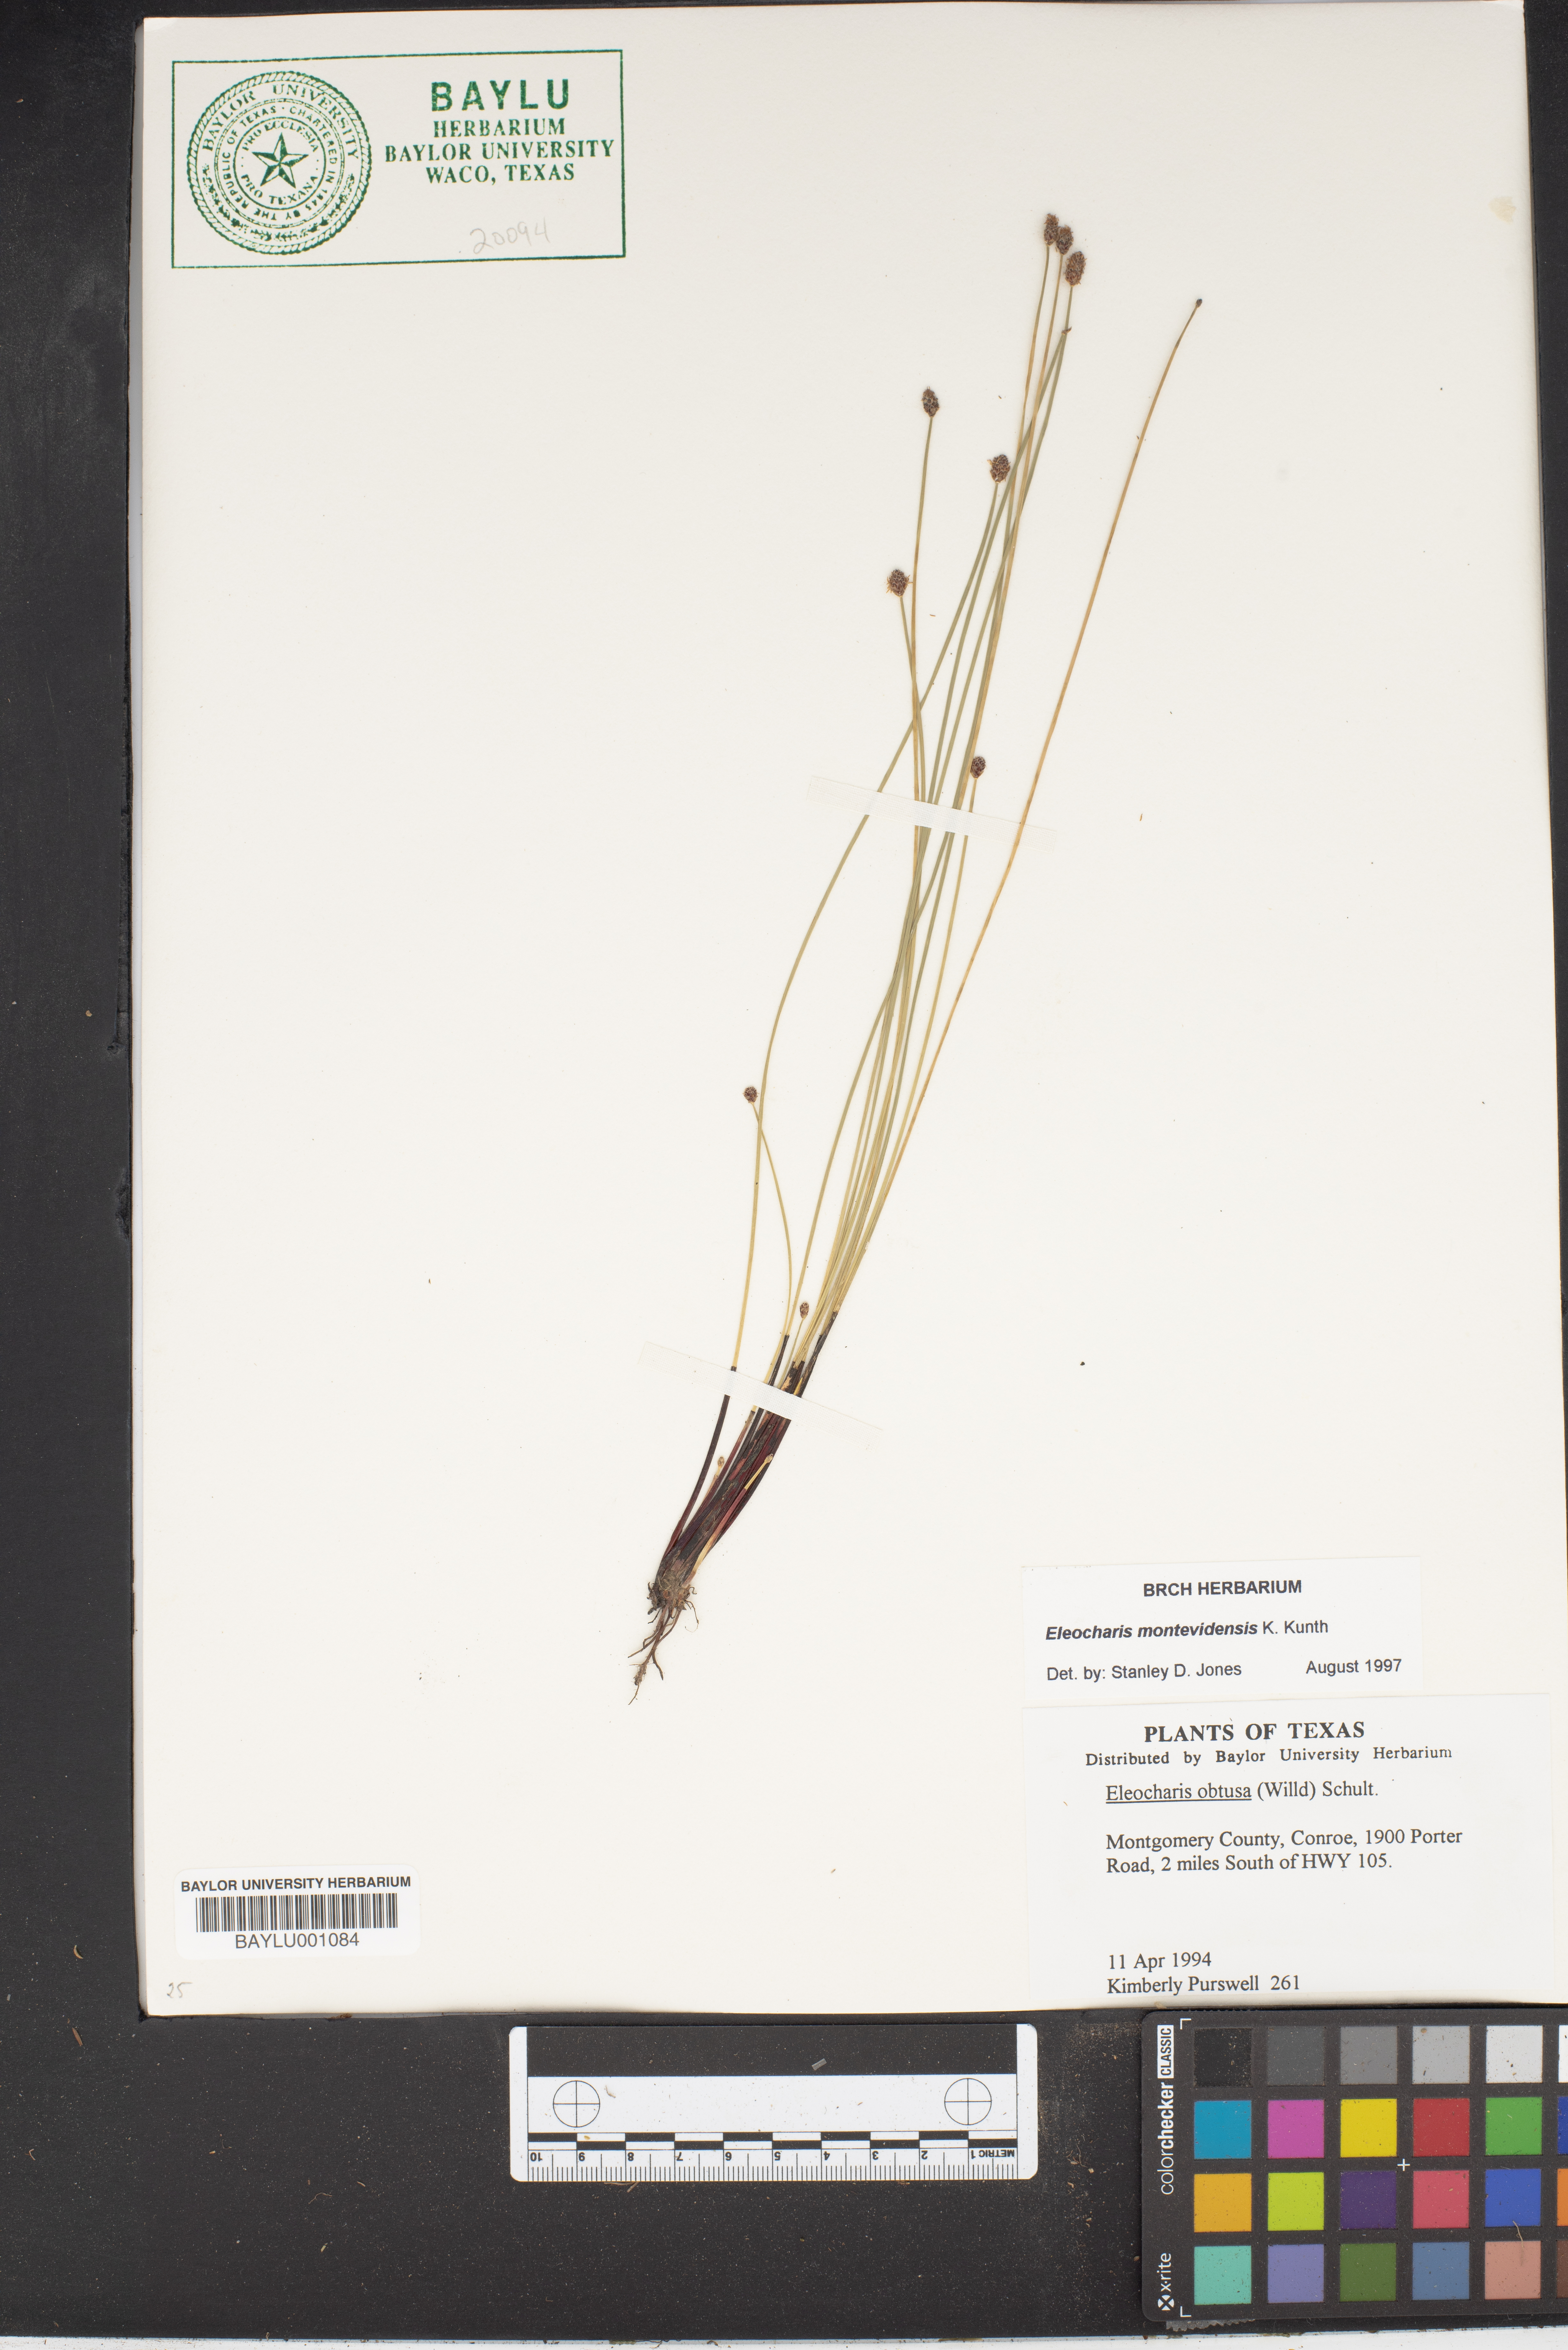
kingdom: Plantae
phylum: Tracheophyta
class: Liliopsida
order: Poales
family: Cyperaceae
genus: Eleocharis
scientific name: Eleocharis obtusa
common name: Blunt spikerush
